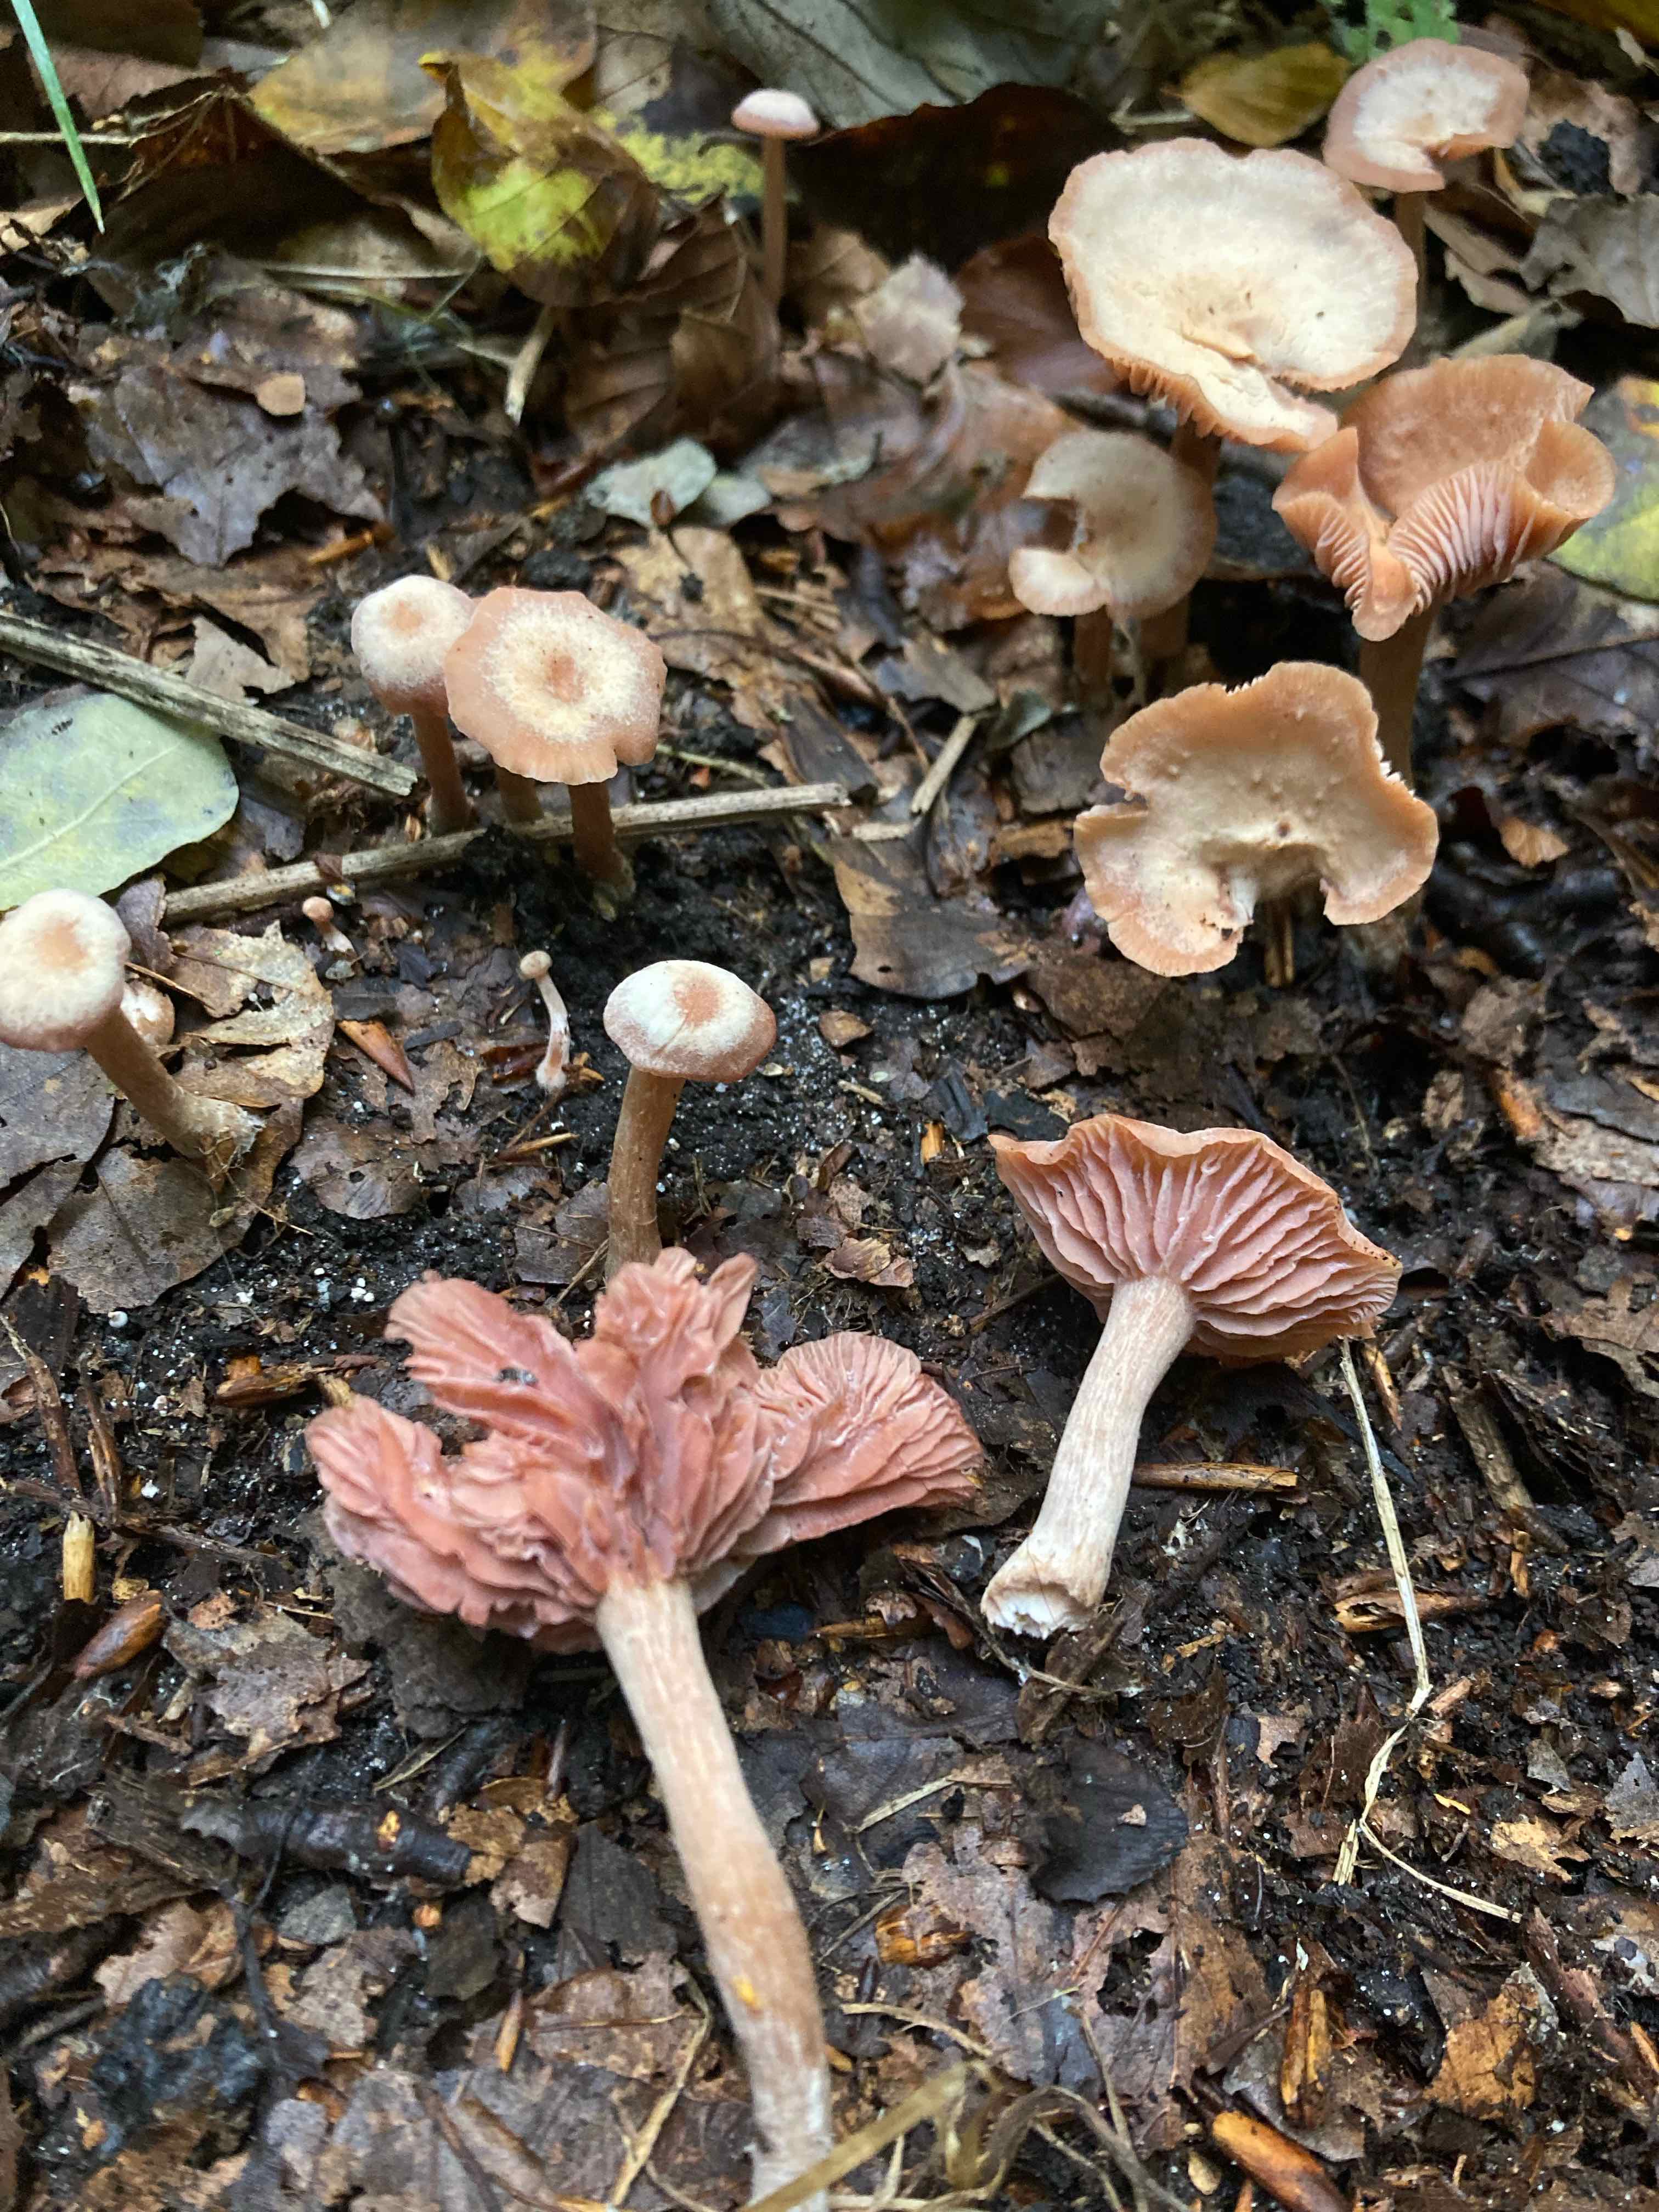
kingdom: Fungi
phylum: Basidiomycota
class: Agaricomycetes
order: Agaricales
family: Hydnangiaceae
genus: Laccaria
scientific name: Laccaria laccata
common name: rød ametysthat
